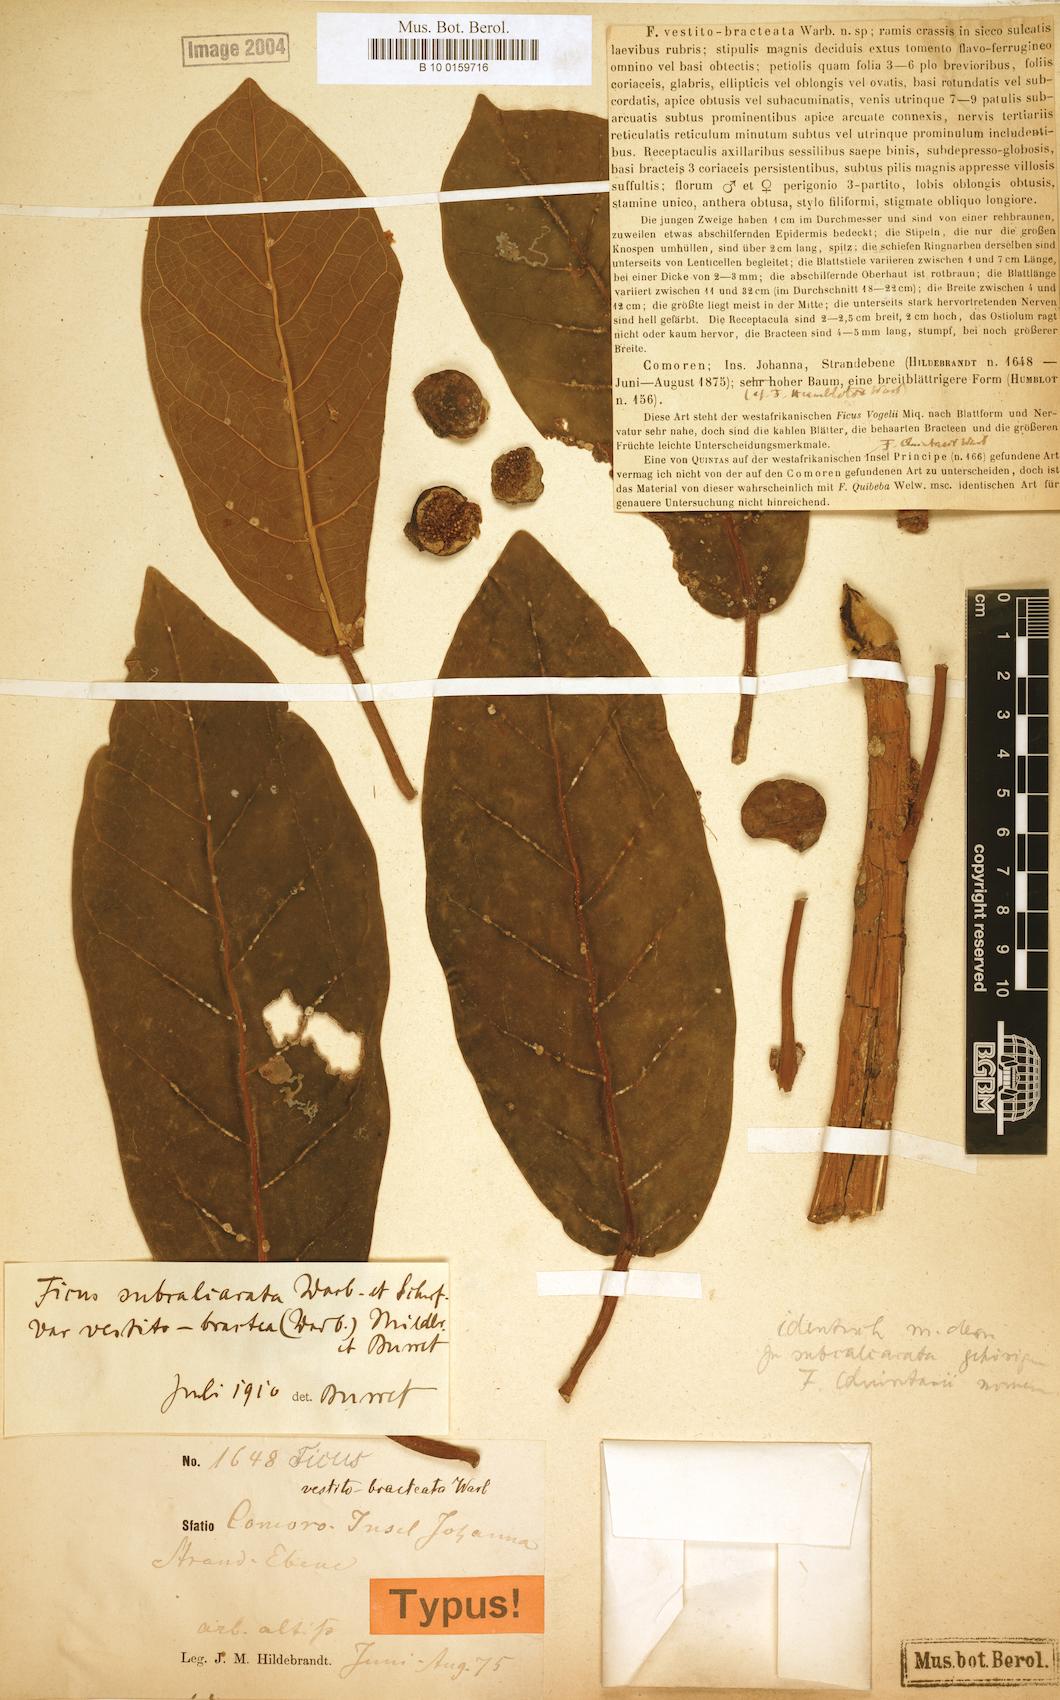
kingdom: Plantae
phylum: Tracheophyta
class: Magnoliopsida
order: Rosales
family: Moraceae
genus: Ficus
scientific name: Ficus lutea
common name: Giant-leaved fig
